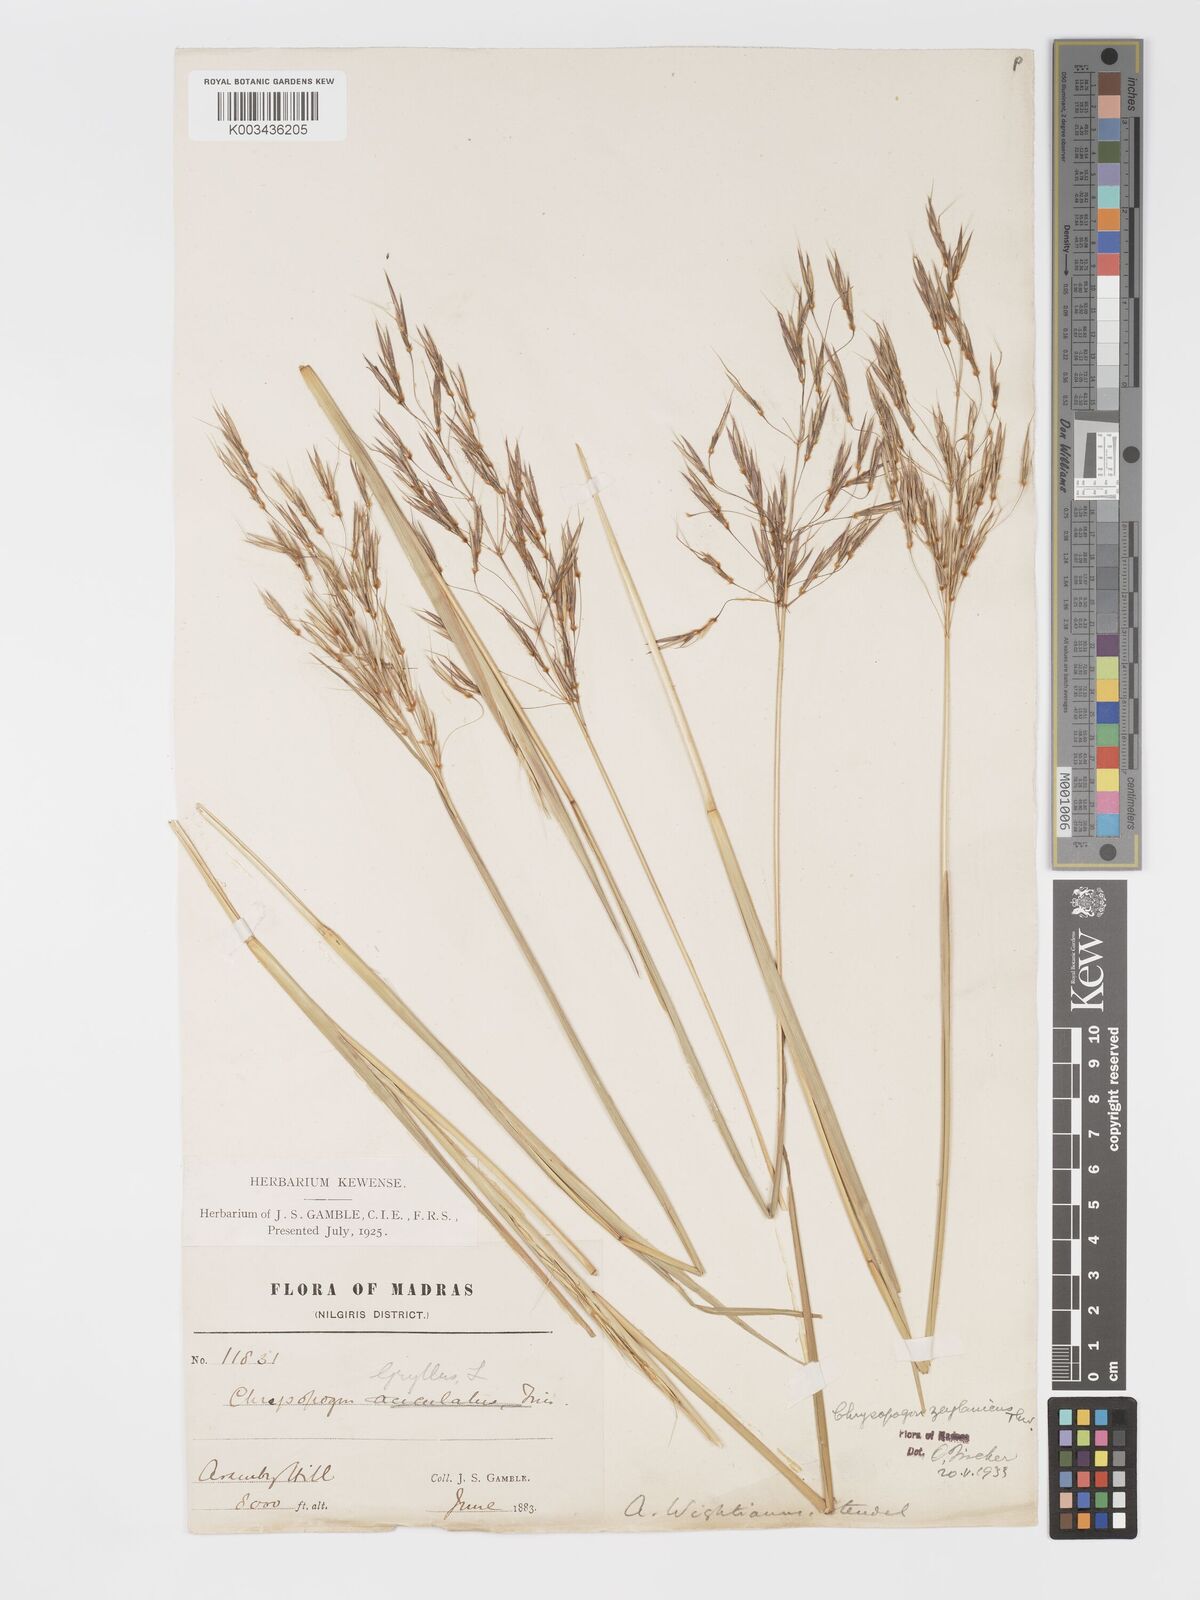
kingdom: Plantae
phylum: Tracheophyta
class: Liliopsida
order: Poales
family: Poaceae
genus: Chrysopogon
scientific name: Chrysopogon nodulibarbis
